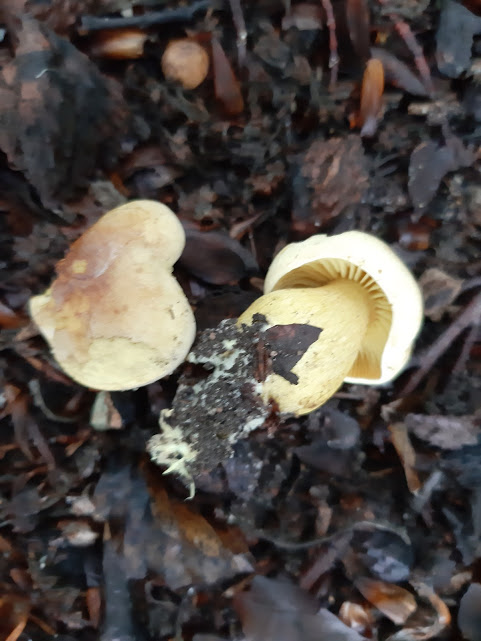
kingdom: Fungi
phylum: Basidiomycota
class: Agaricomycetes
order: Agaricales
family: Tricholomataceae
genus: Tricholoma
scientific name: Tricholoma sulphureum
